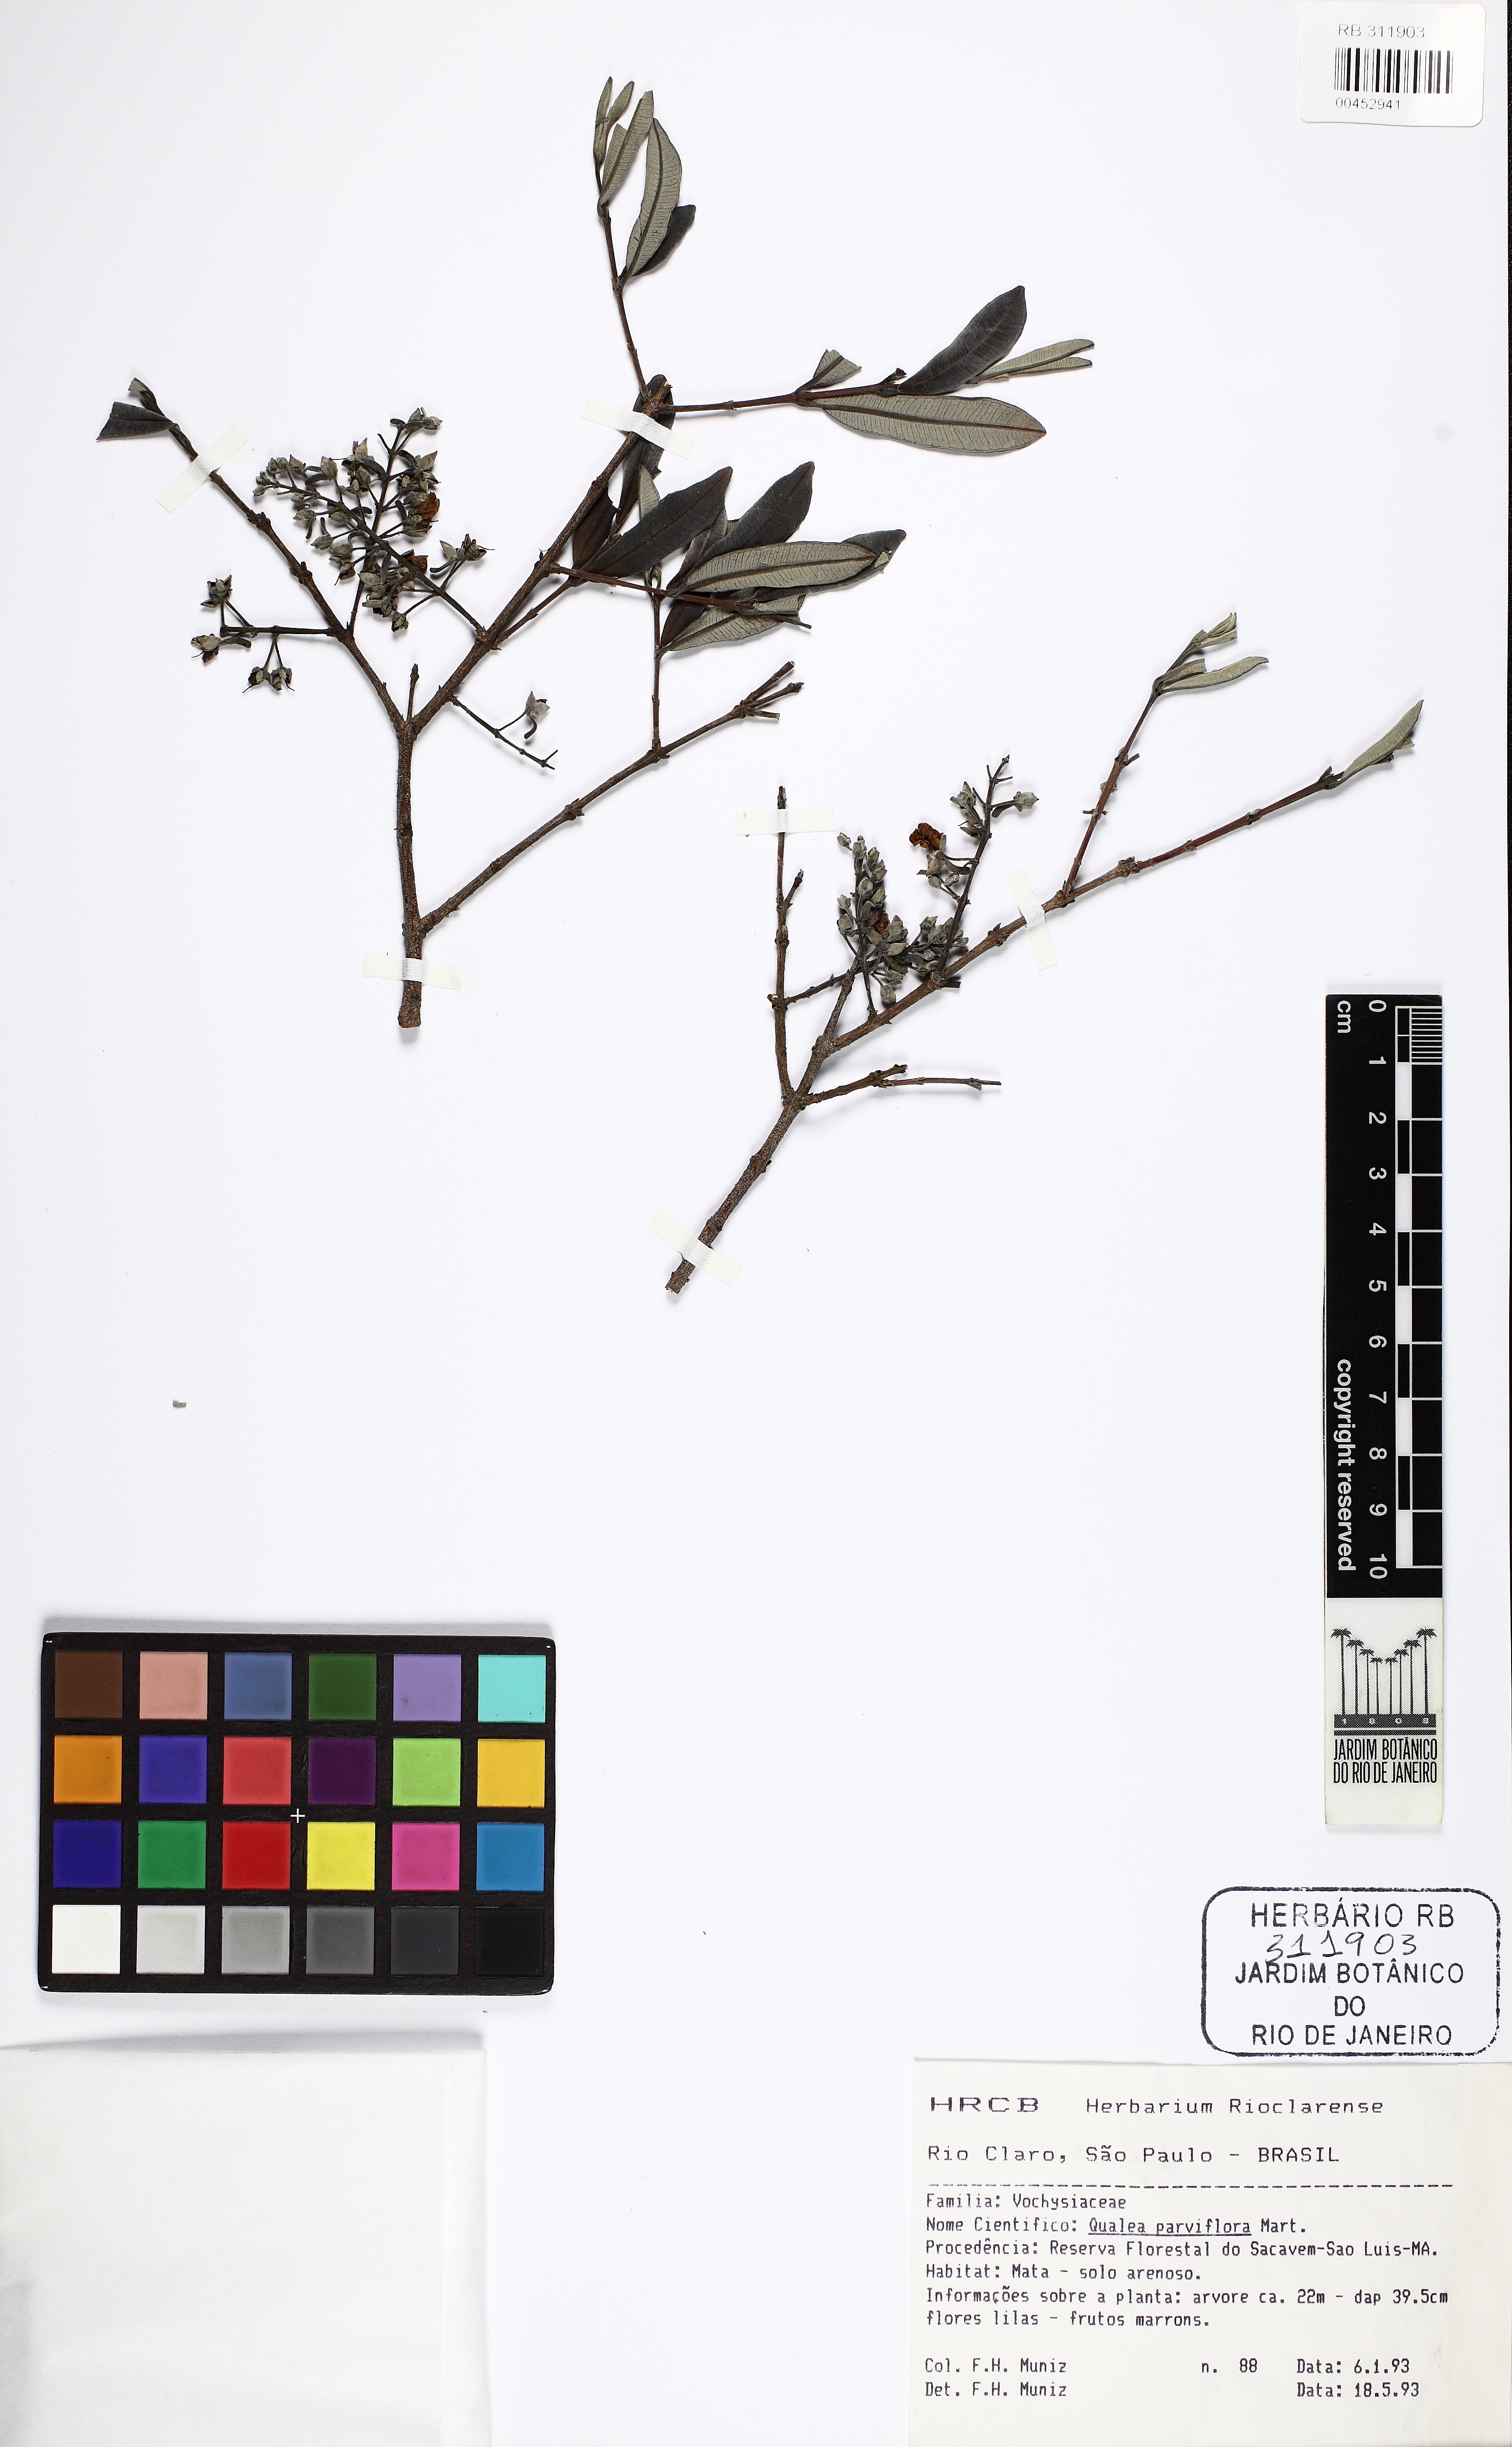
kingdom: Plantae
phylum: Tracheophyta
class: Magnoliopsida
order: Myrtales
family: Vochysiaceae
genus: Qualea
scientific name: Qualea parviflora
